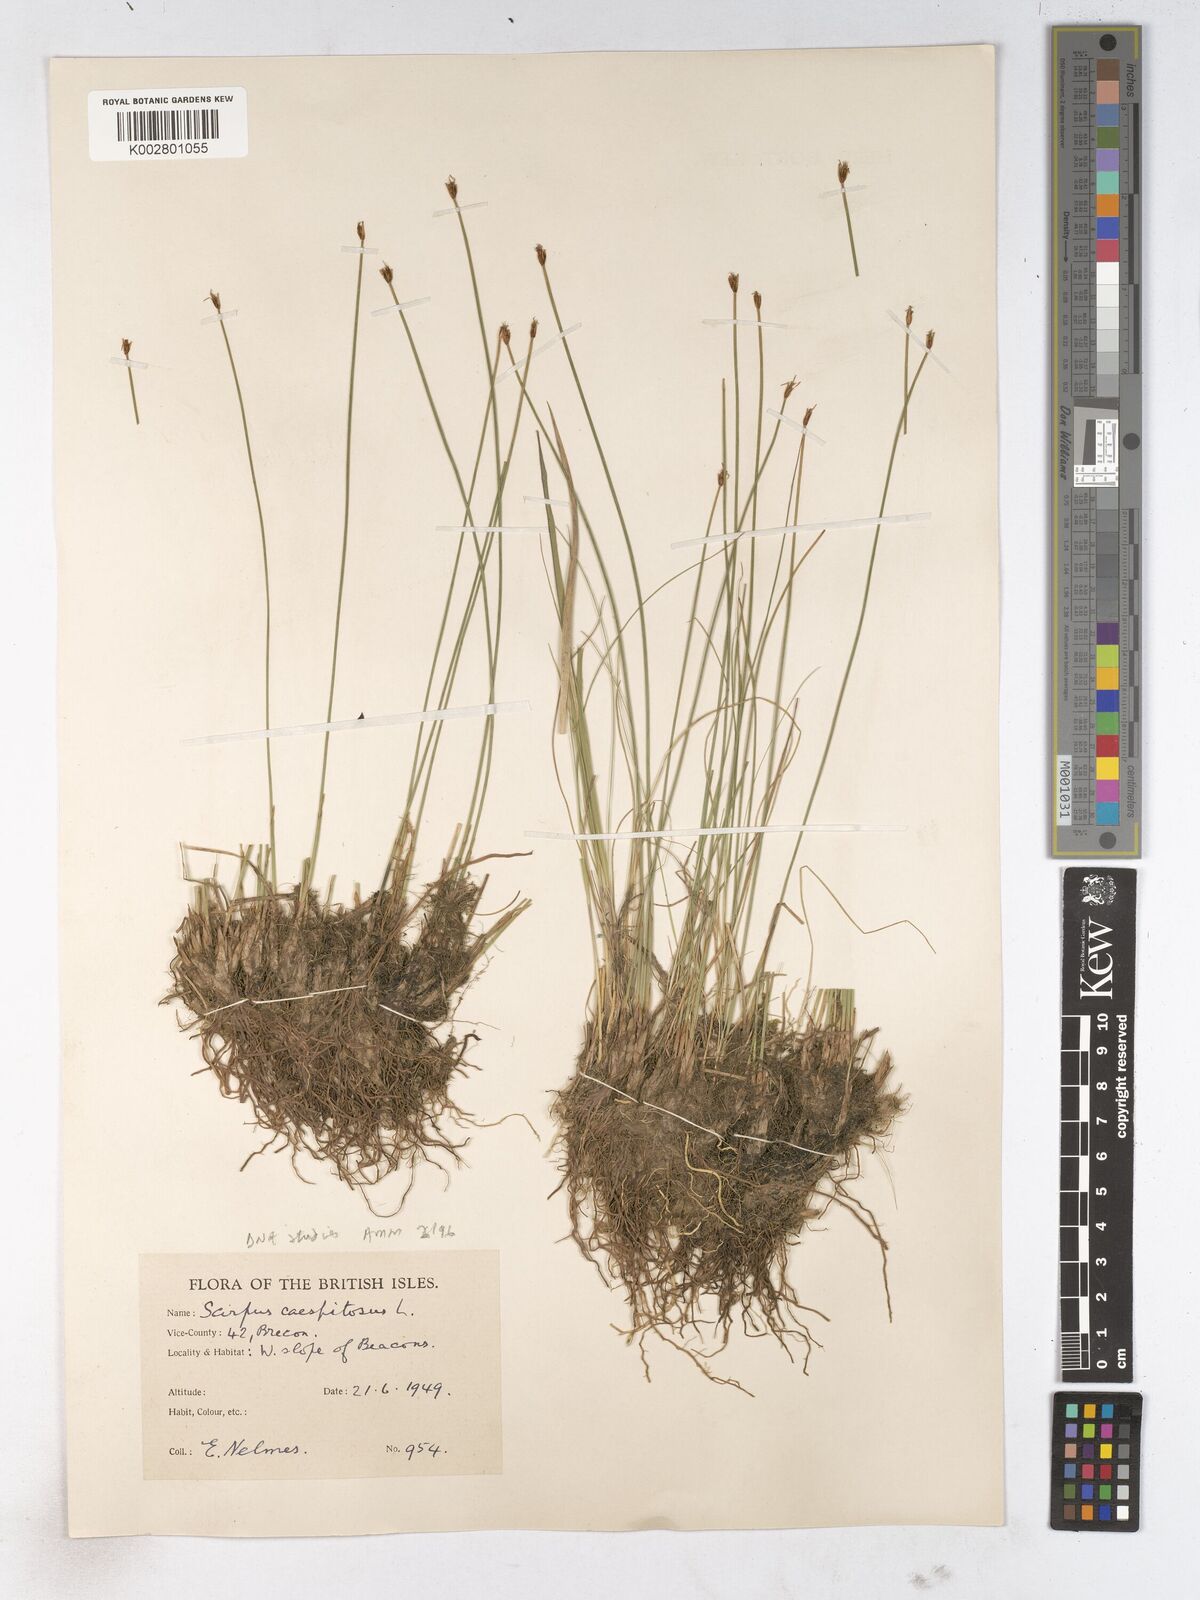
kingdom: Plantae
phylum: Tracheophyta
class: Liliopsida
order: Poales
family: Cyperaceae
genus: Trichophorum
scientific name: Trichophorum cespitosum
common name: Cespitose bulrush
